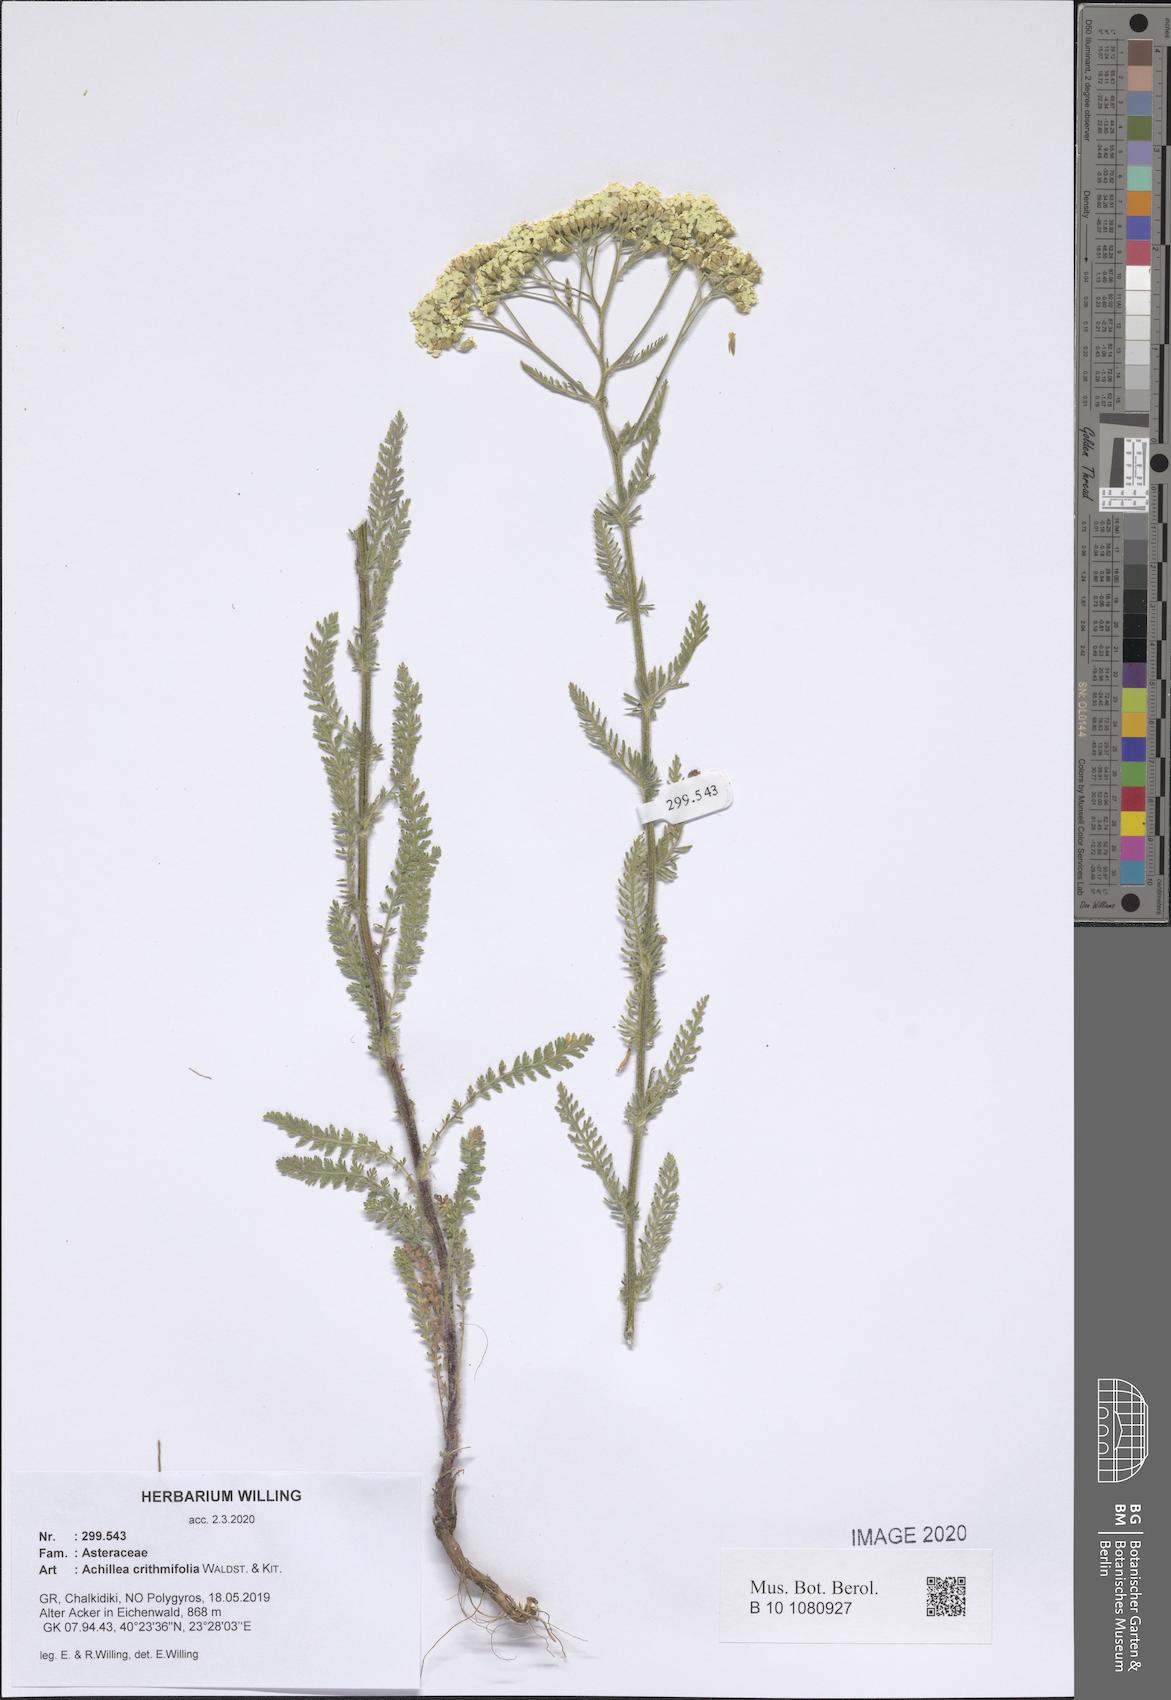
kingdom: Plantae
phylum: Tracheophyta
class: Magnoliopsida
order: Asterales
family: Asteraceae
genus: Achillea
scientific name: Achillea crithmifolia
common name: Yarrow
